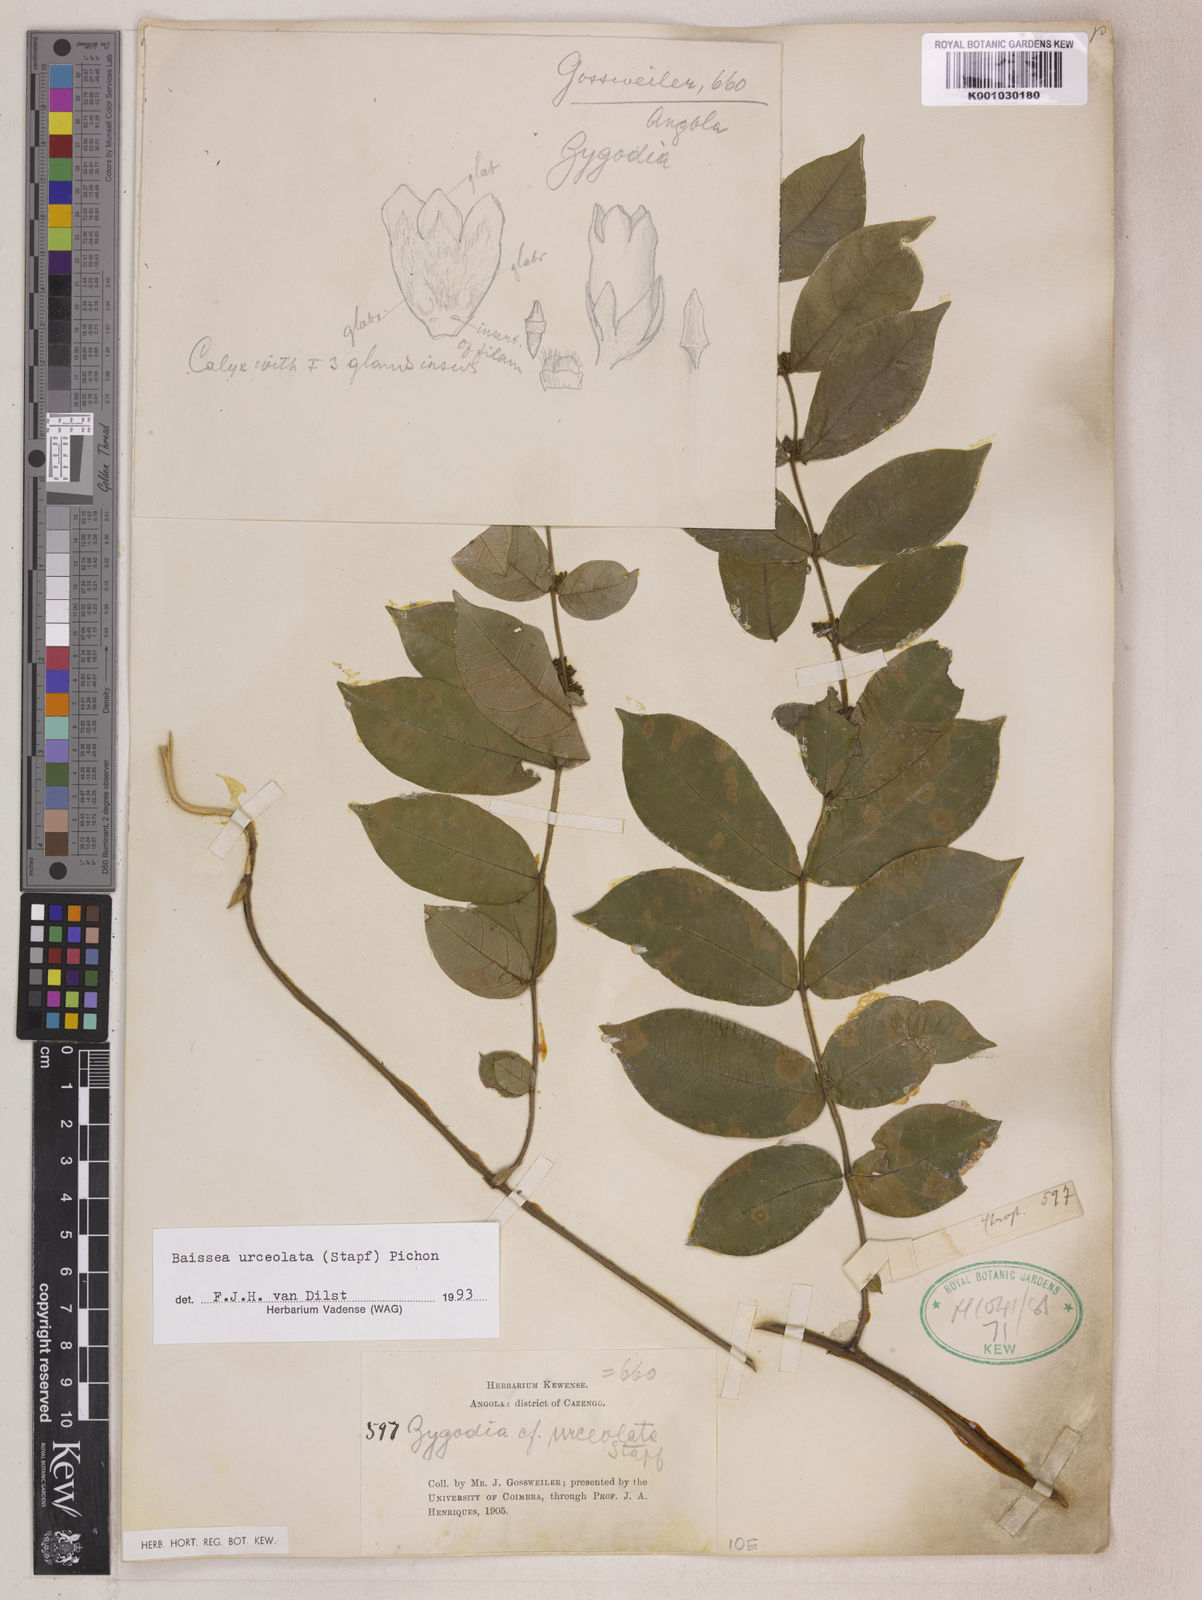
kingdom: Plantae
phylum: Tracheophyta
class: Magnoliopsida
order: Gentianales
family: Apocynaceae
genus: Baissea
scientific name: Baissea myrtifolia
